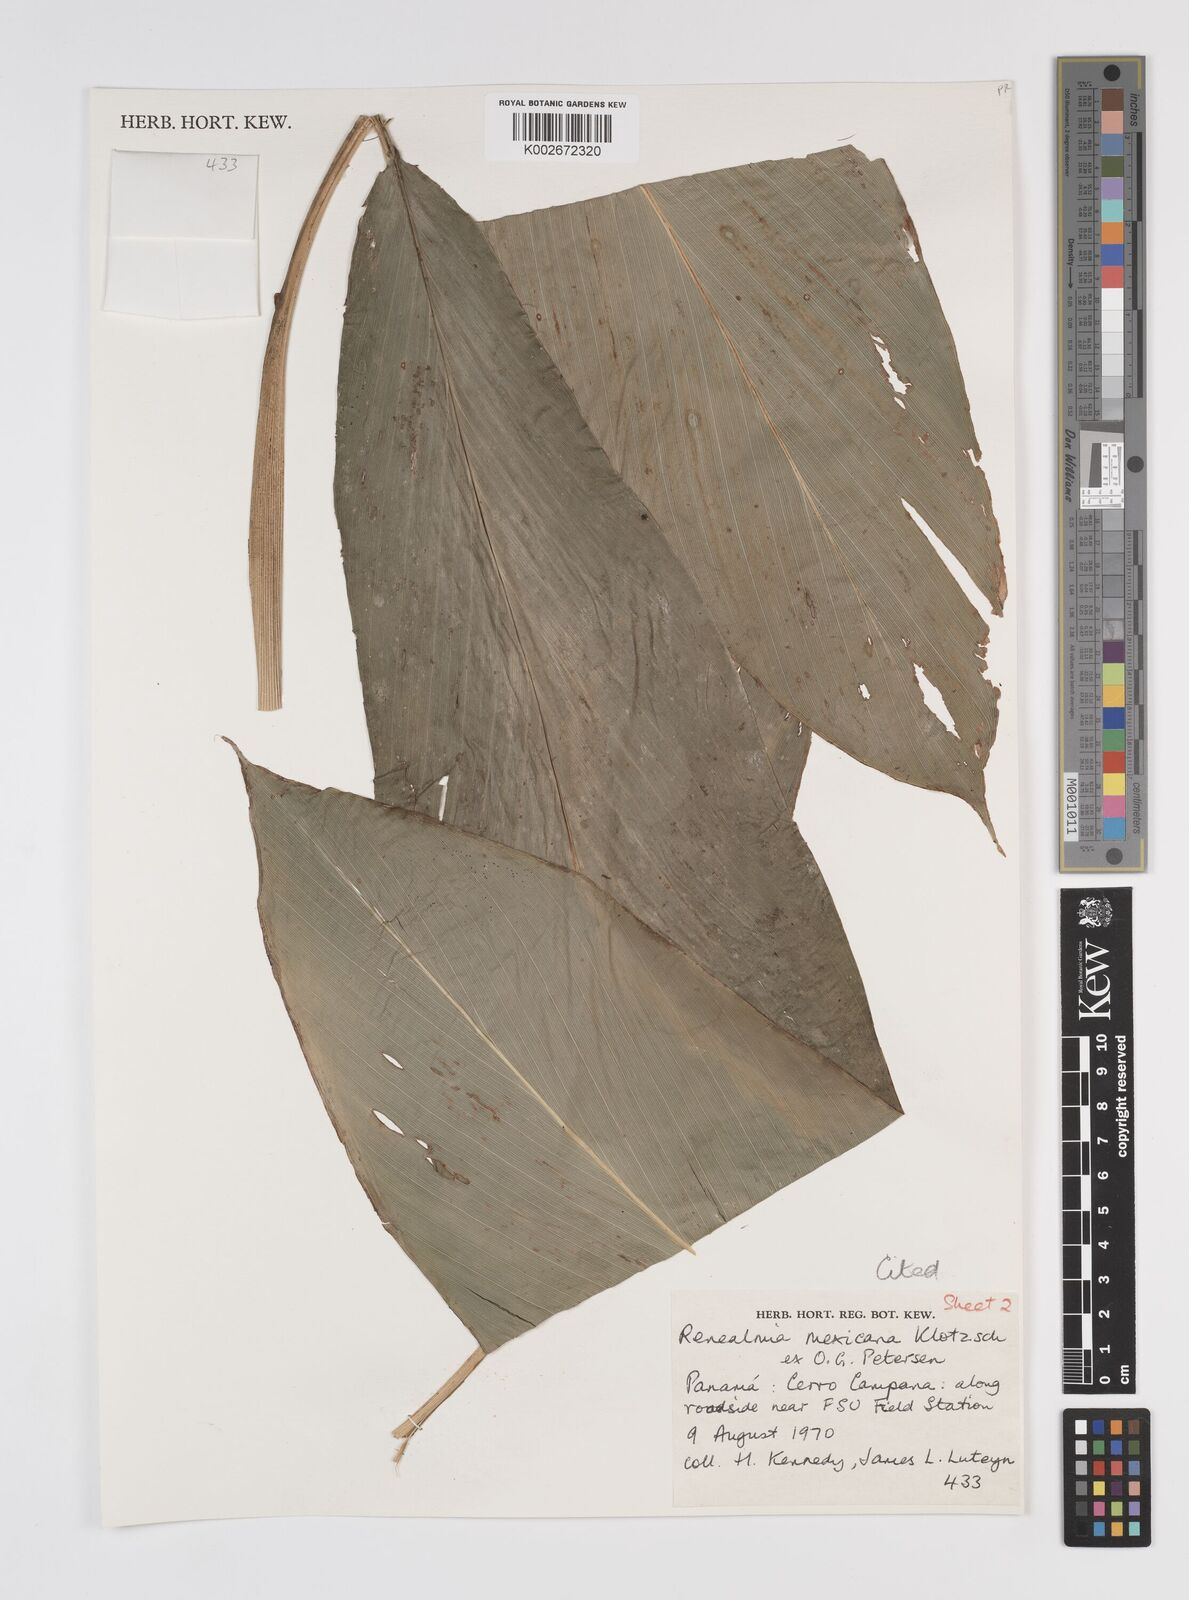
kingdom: Plantae
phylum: Tracheophyta
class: Liliopsida
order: Zingiberales
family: Zingiberaceae
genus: Renealmia
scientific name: Renealmia mexicana
